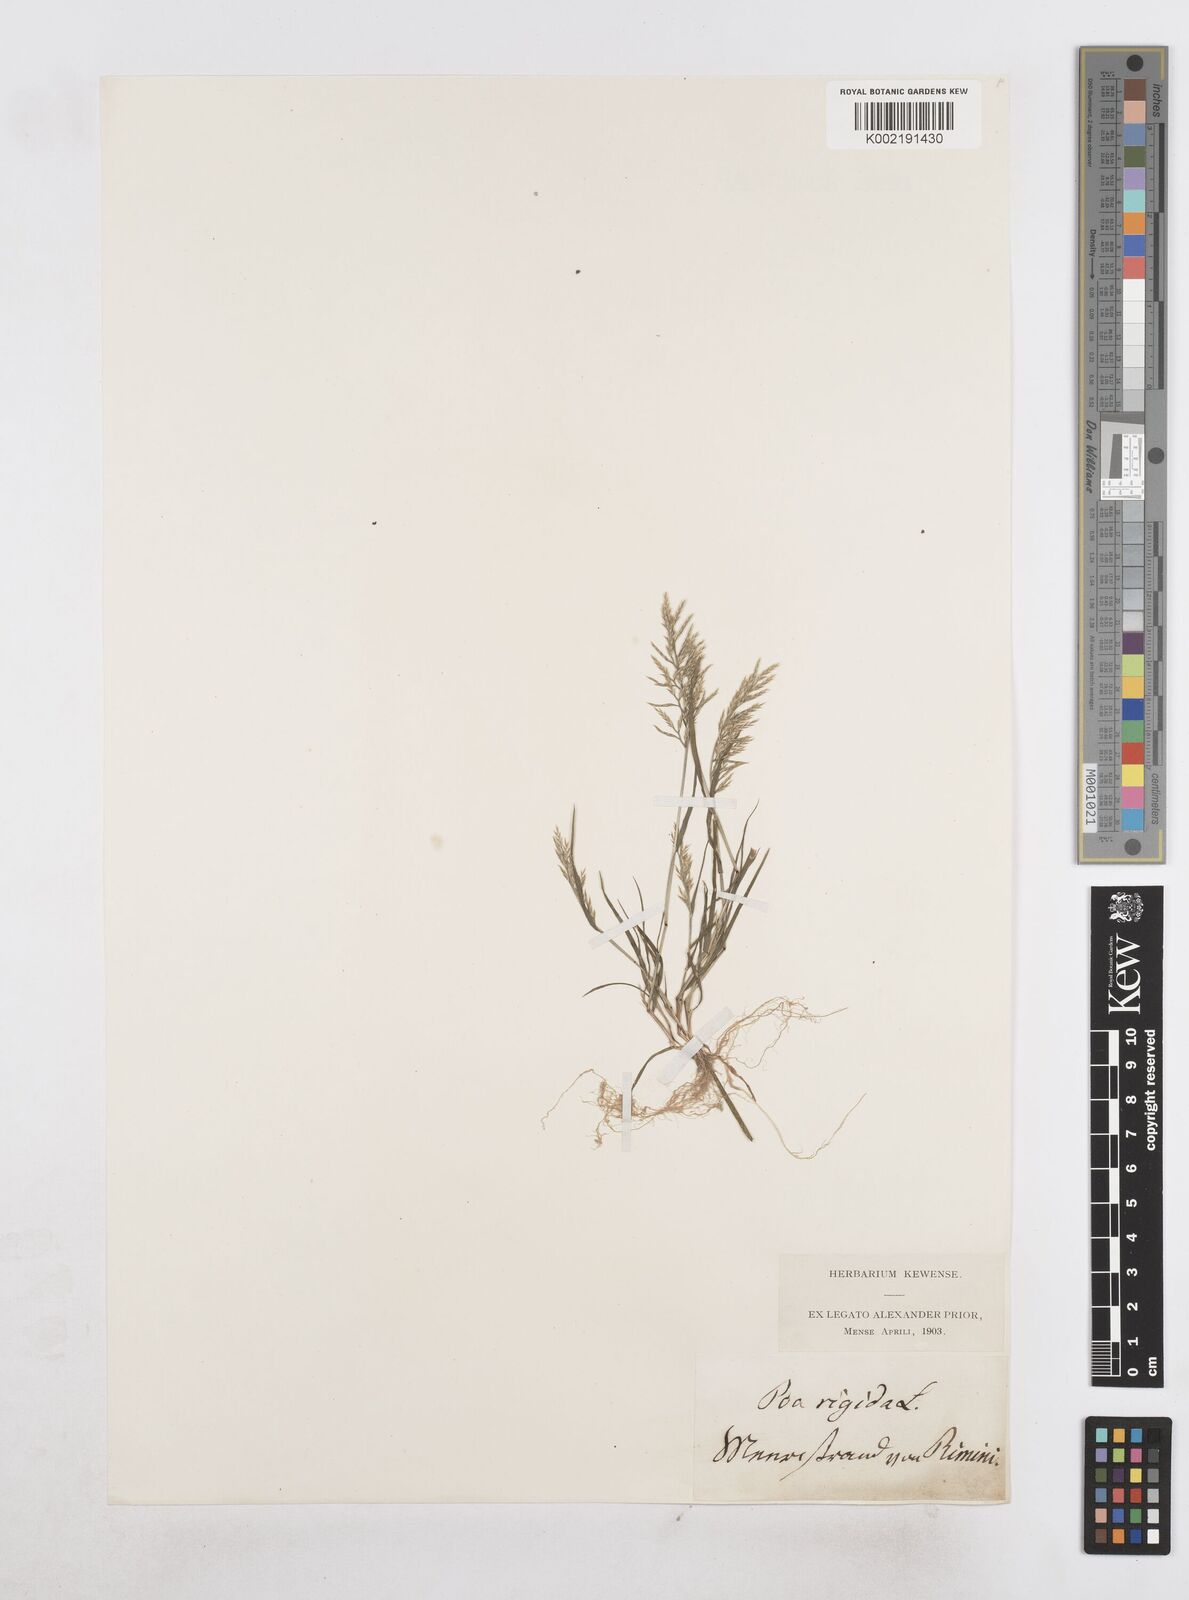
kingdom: Plantae
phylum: Tracheophyta
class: Liliopsida
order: Poales
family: Poaceae
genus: Catapodium
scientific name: Catapodium rigidum
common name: Fern-grass
